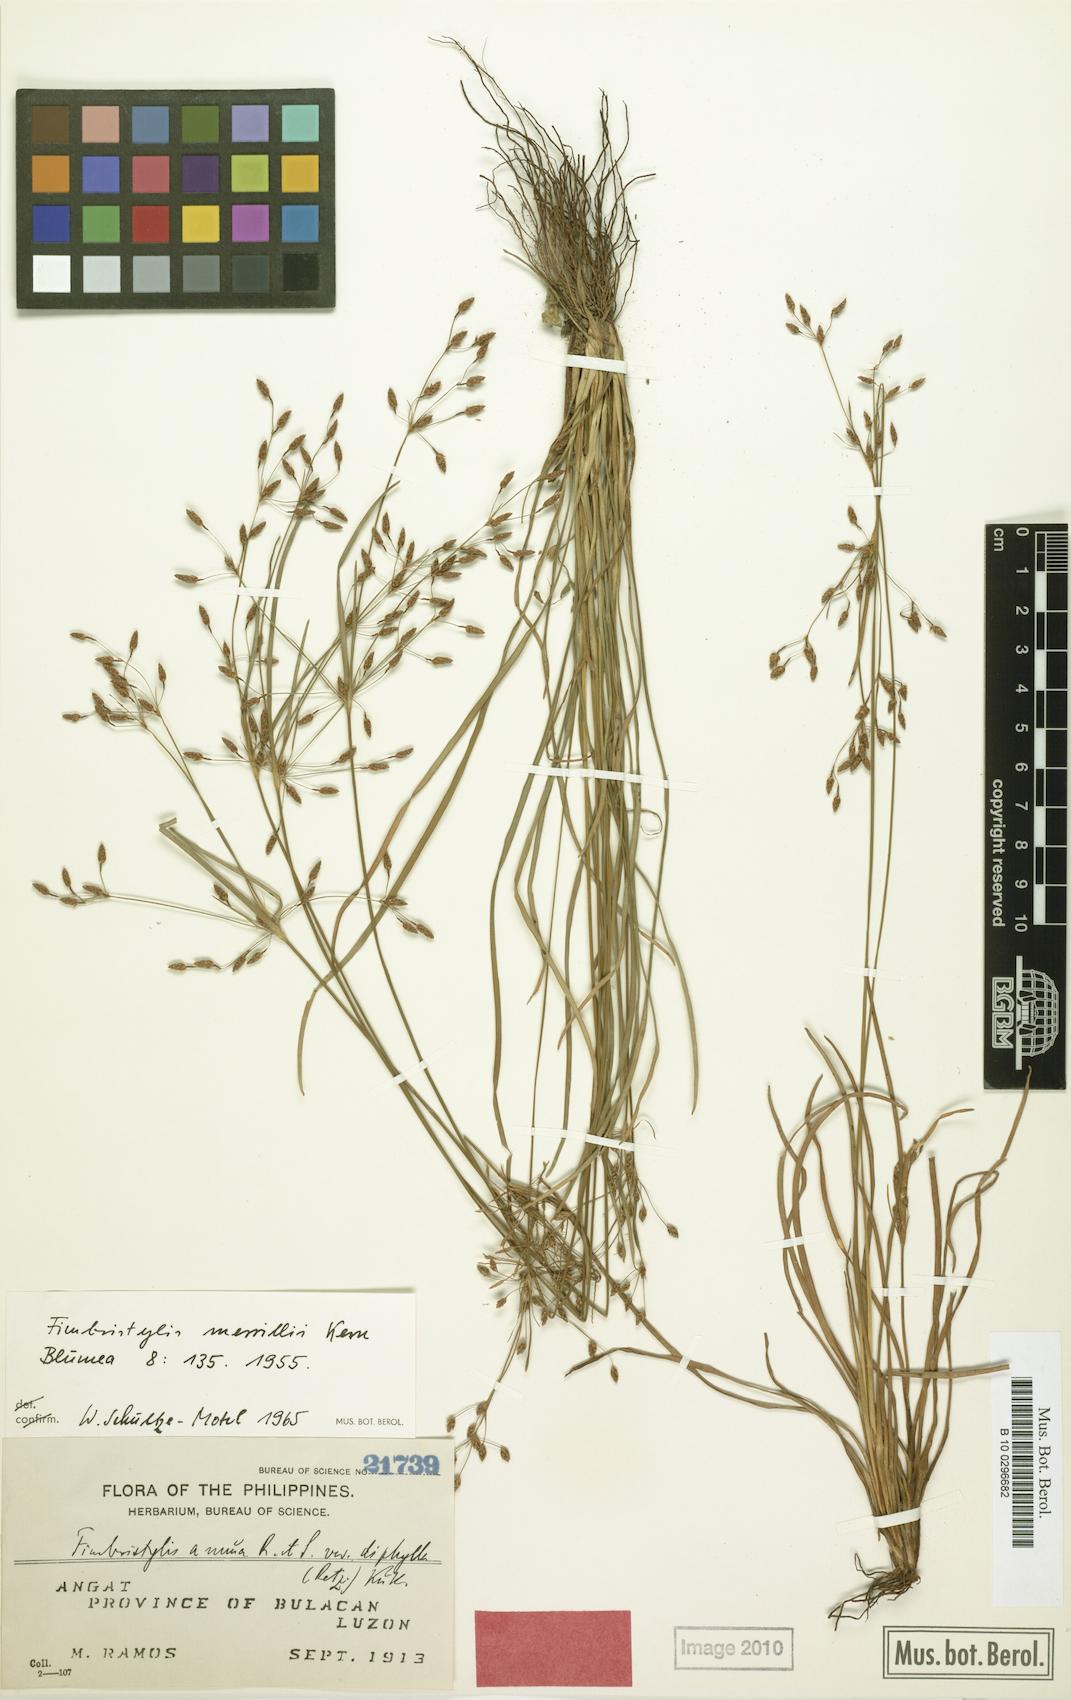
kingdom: Plantae
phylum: Tracheophyta
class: Liliopsida
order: Poales
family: Cyperaceae
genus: Fimbristylis
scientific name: Fimbristylis merrillii
